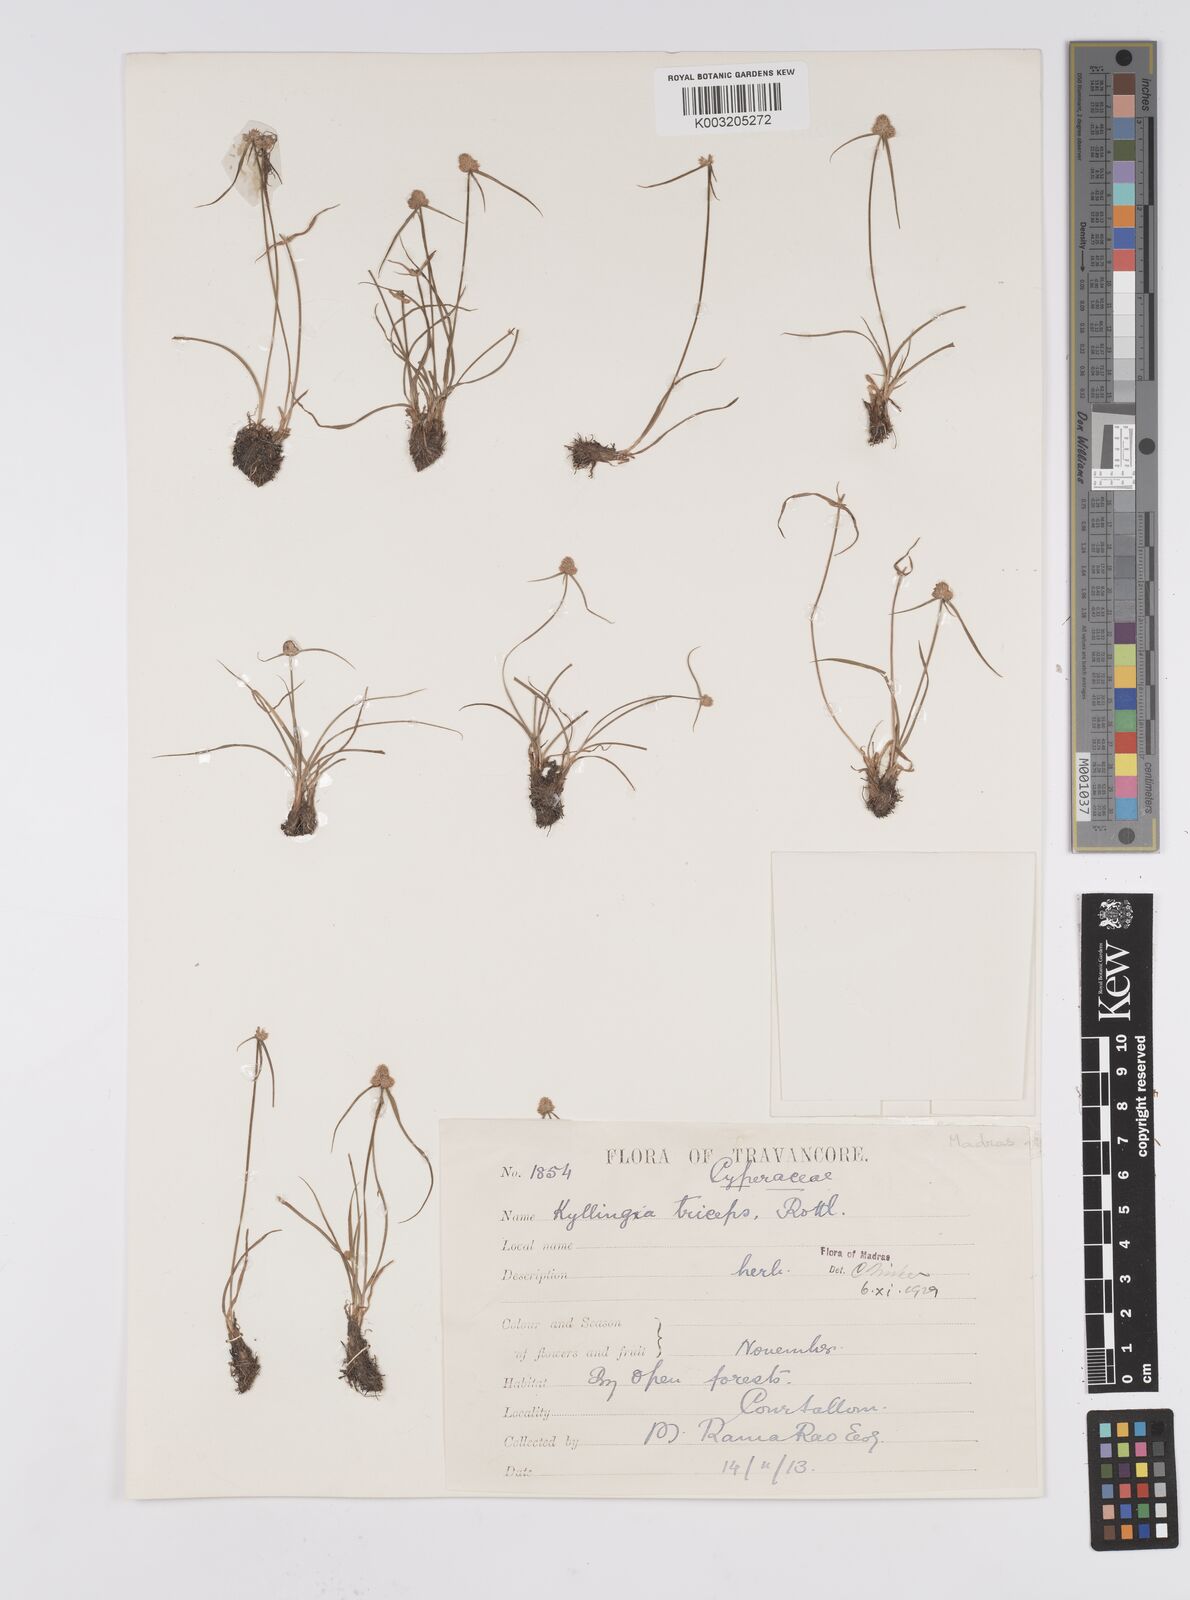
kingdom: Plantae
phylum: Tracheophyta
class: Liliopsida
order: Poales
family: Cyperaceae
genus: Cyperus
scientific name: Cyperus
